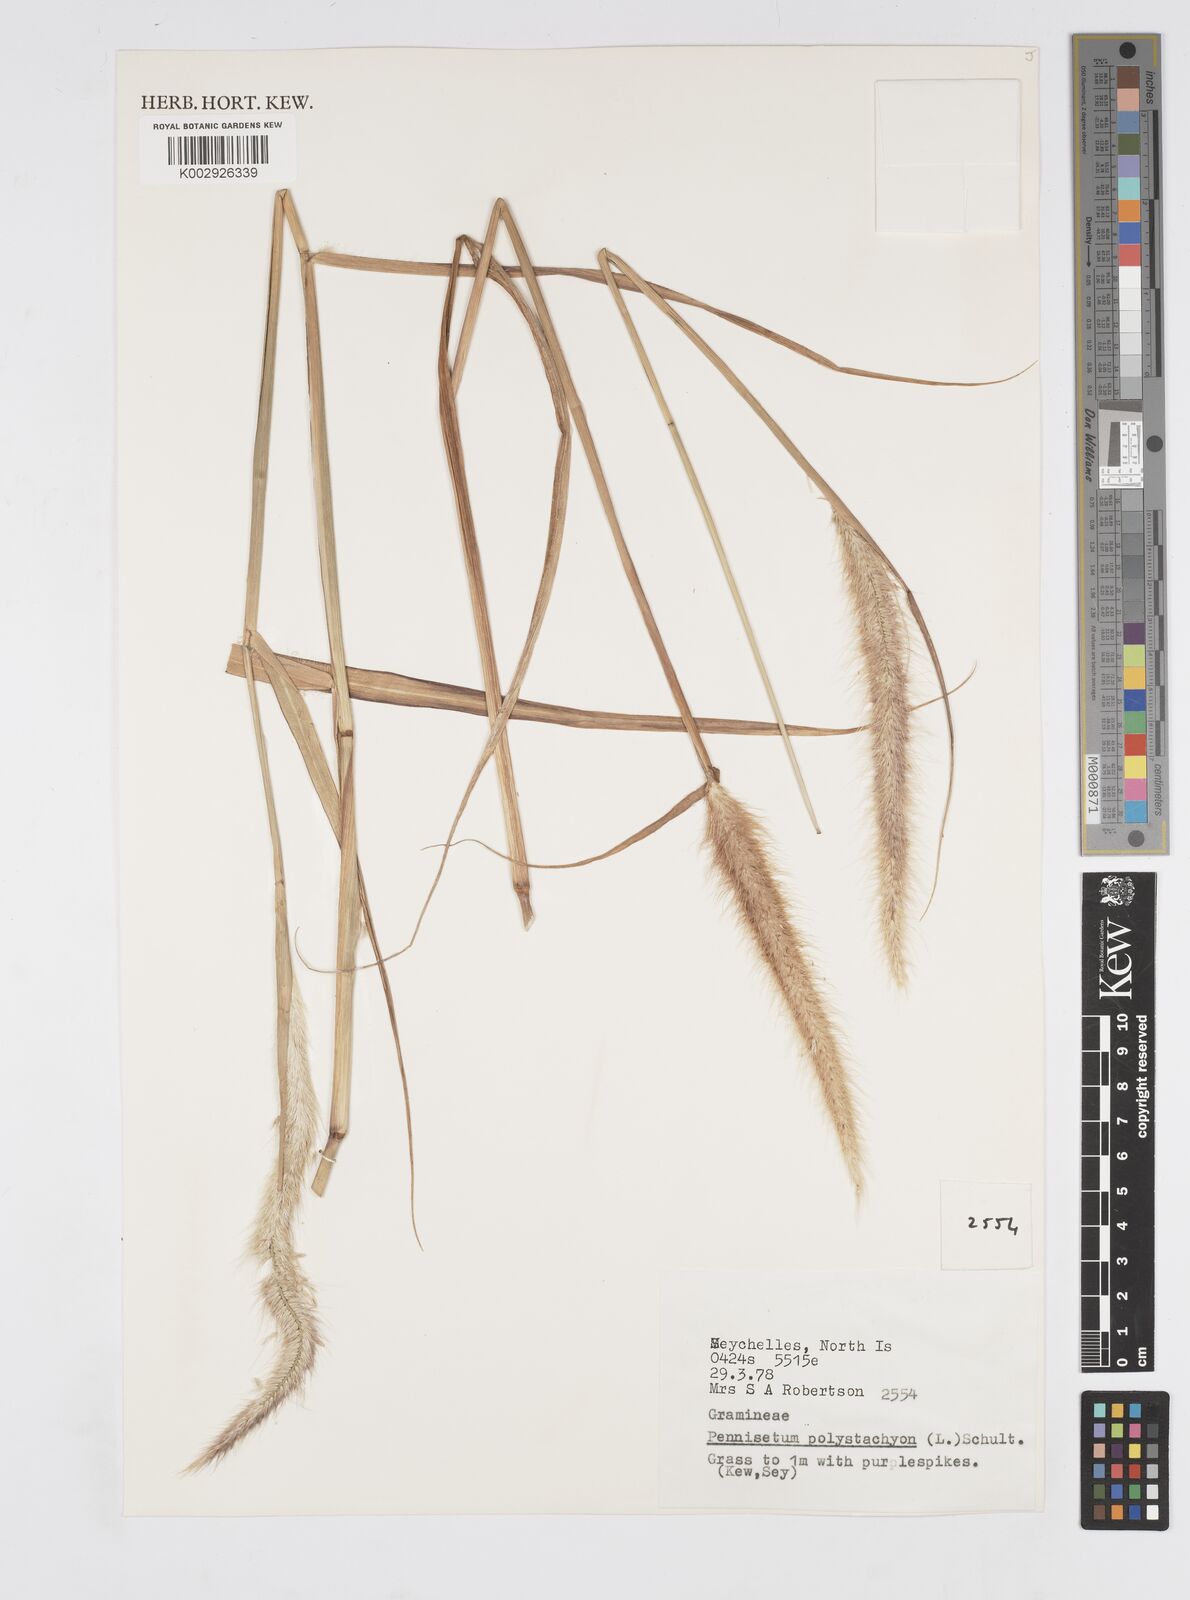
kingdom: Plantae
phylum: Tracheophyta
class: Liliopsida
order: Poales
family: Poaceae
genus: Setaria
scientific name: Setaria parviflora
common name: Knotroot bristle-grass
